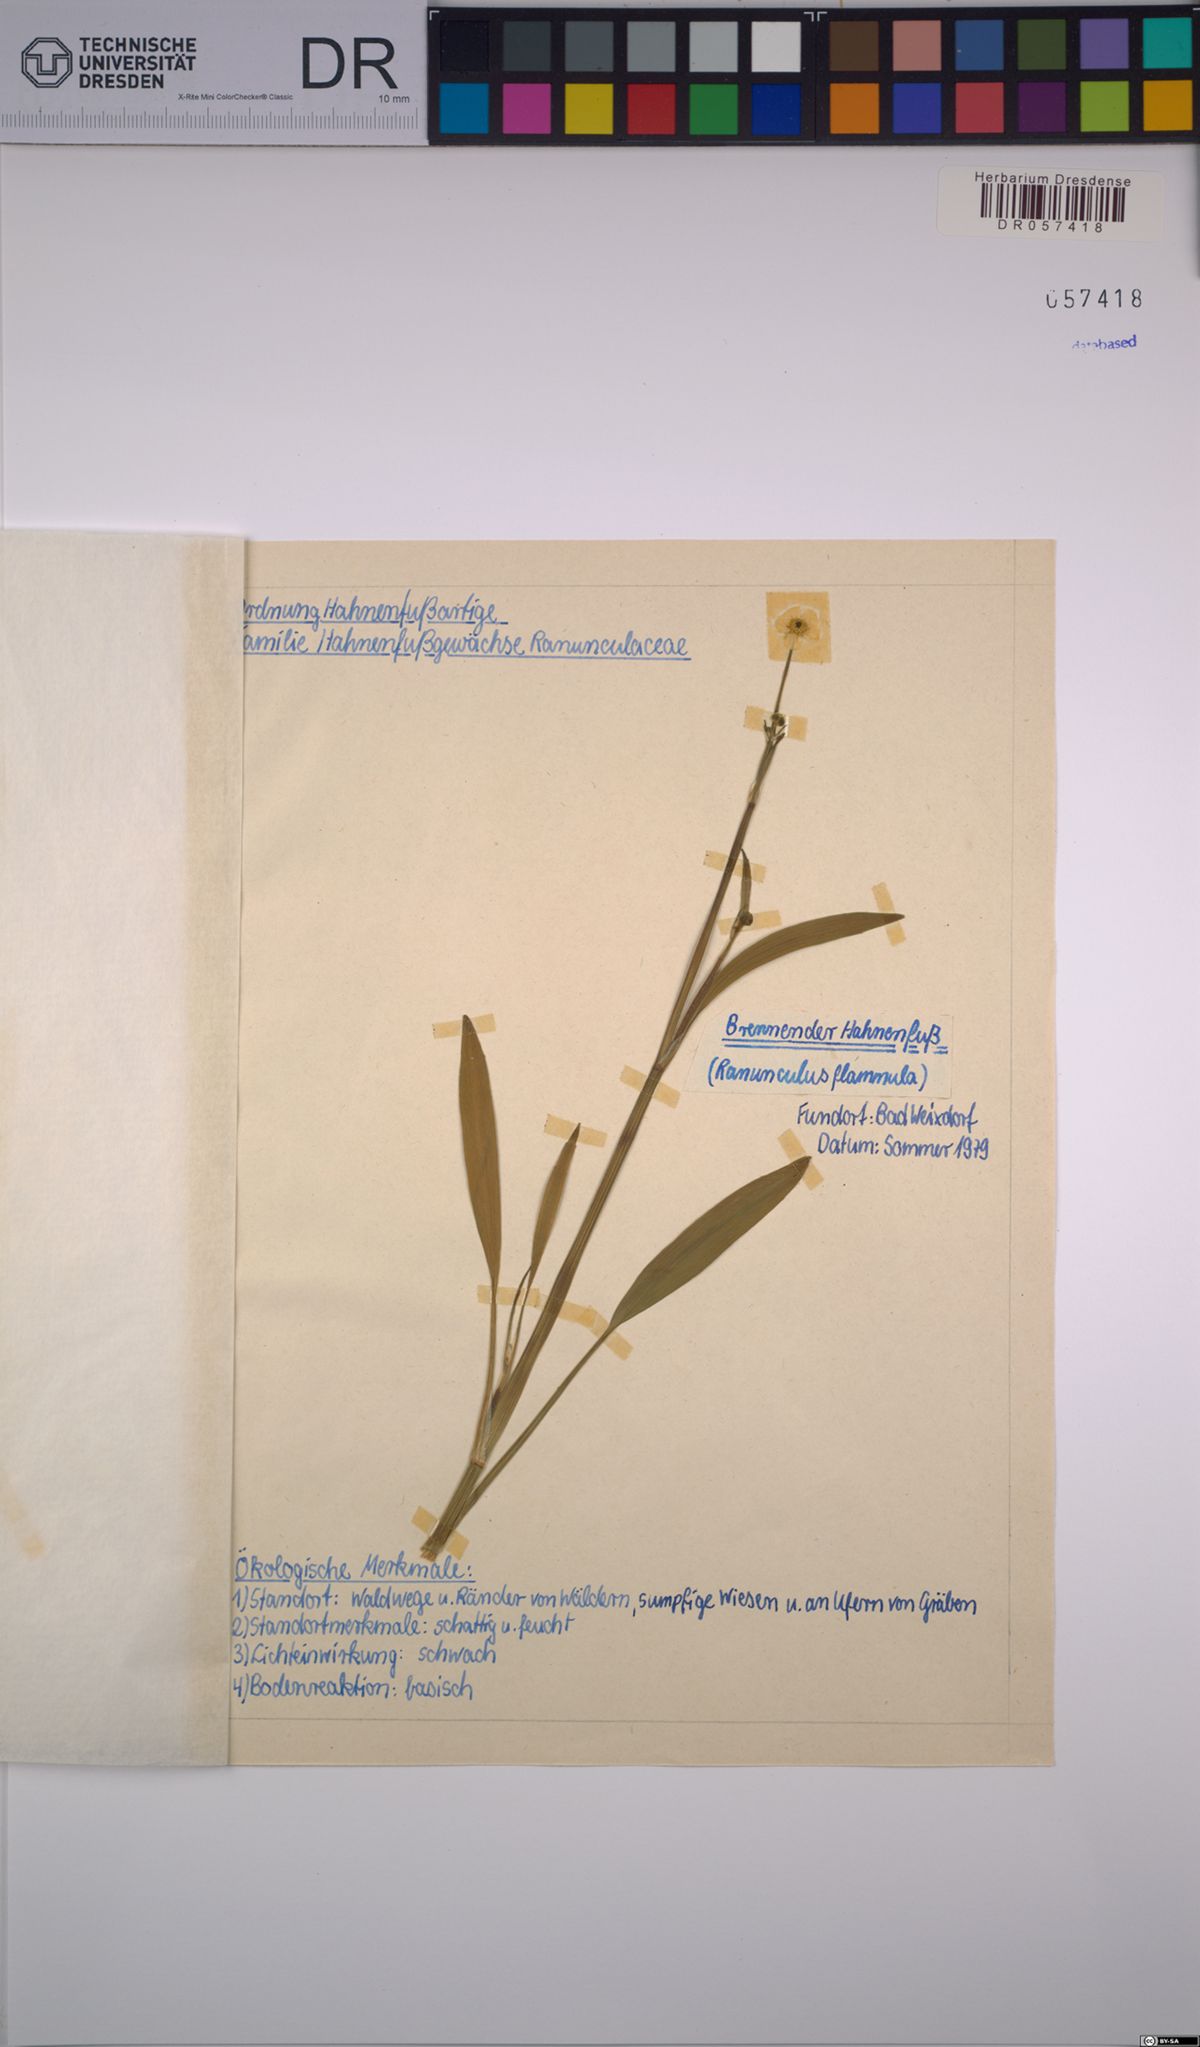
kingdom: Plantae
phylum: Tracheophyta
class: Magnoliopsida
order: Ranunculales
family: Ranunculaceae
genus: Ranunculus
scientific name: Ranunculus flammula
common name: Lesser spearwort
